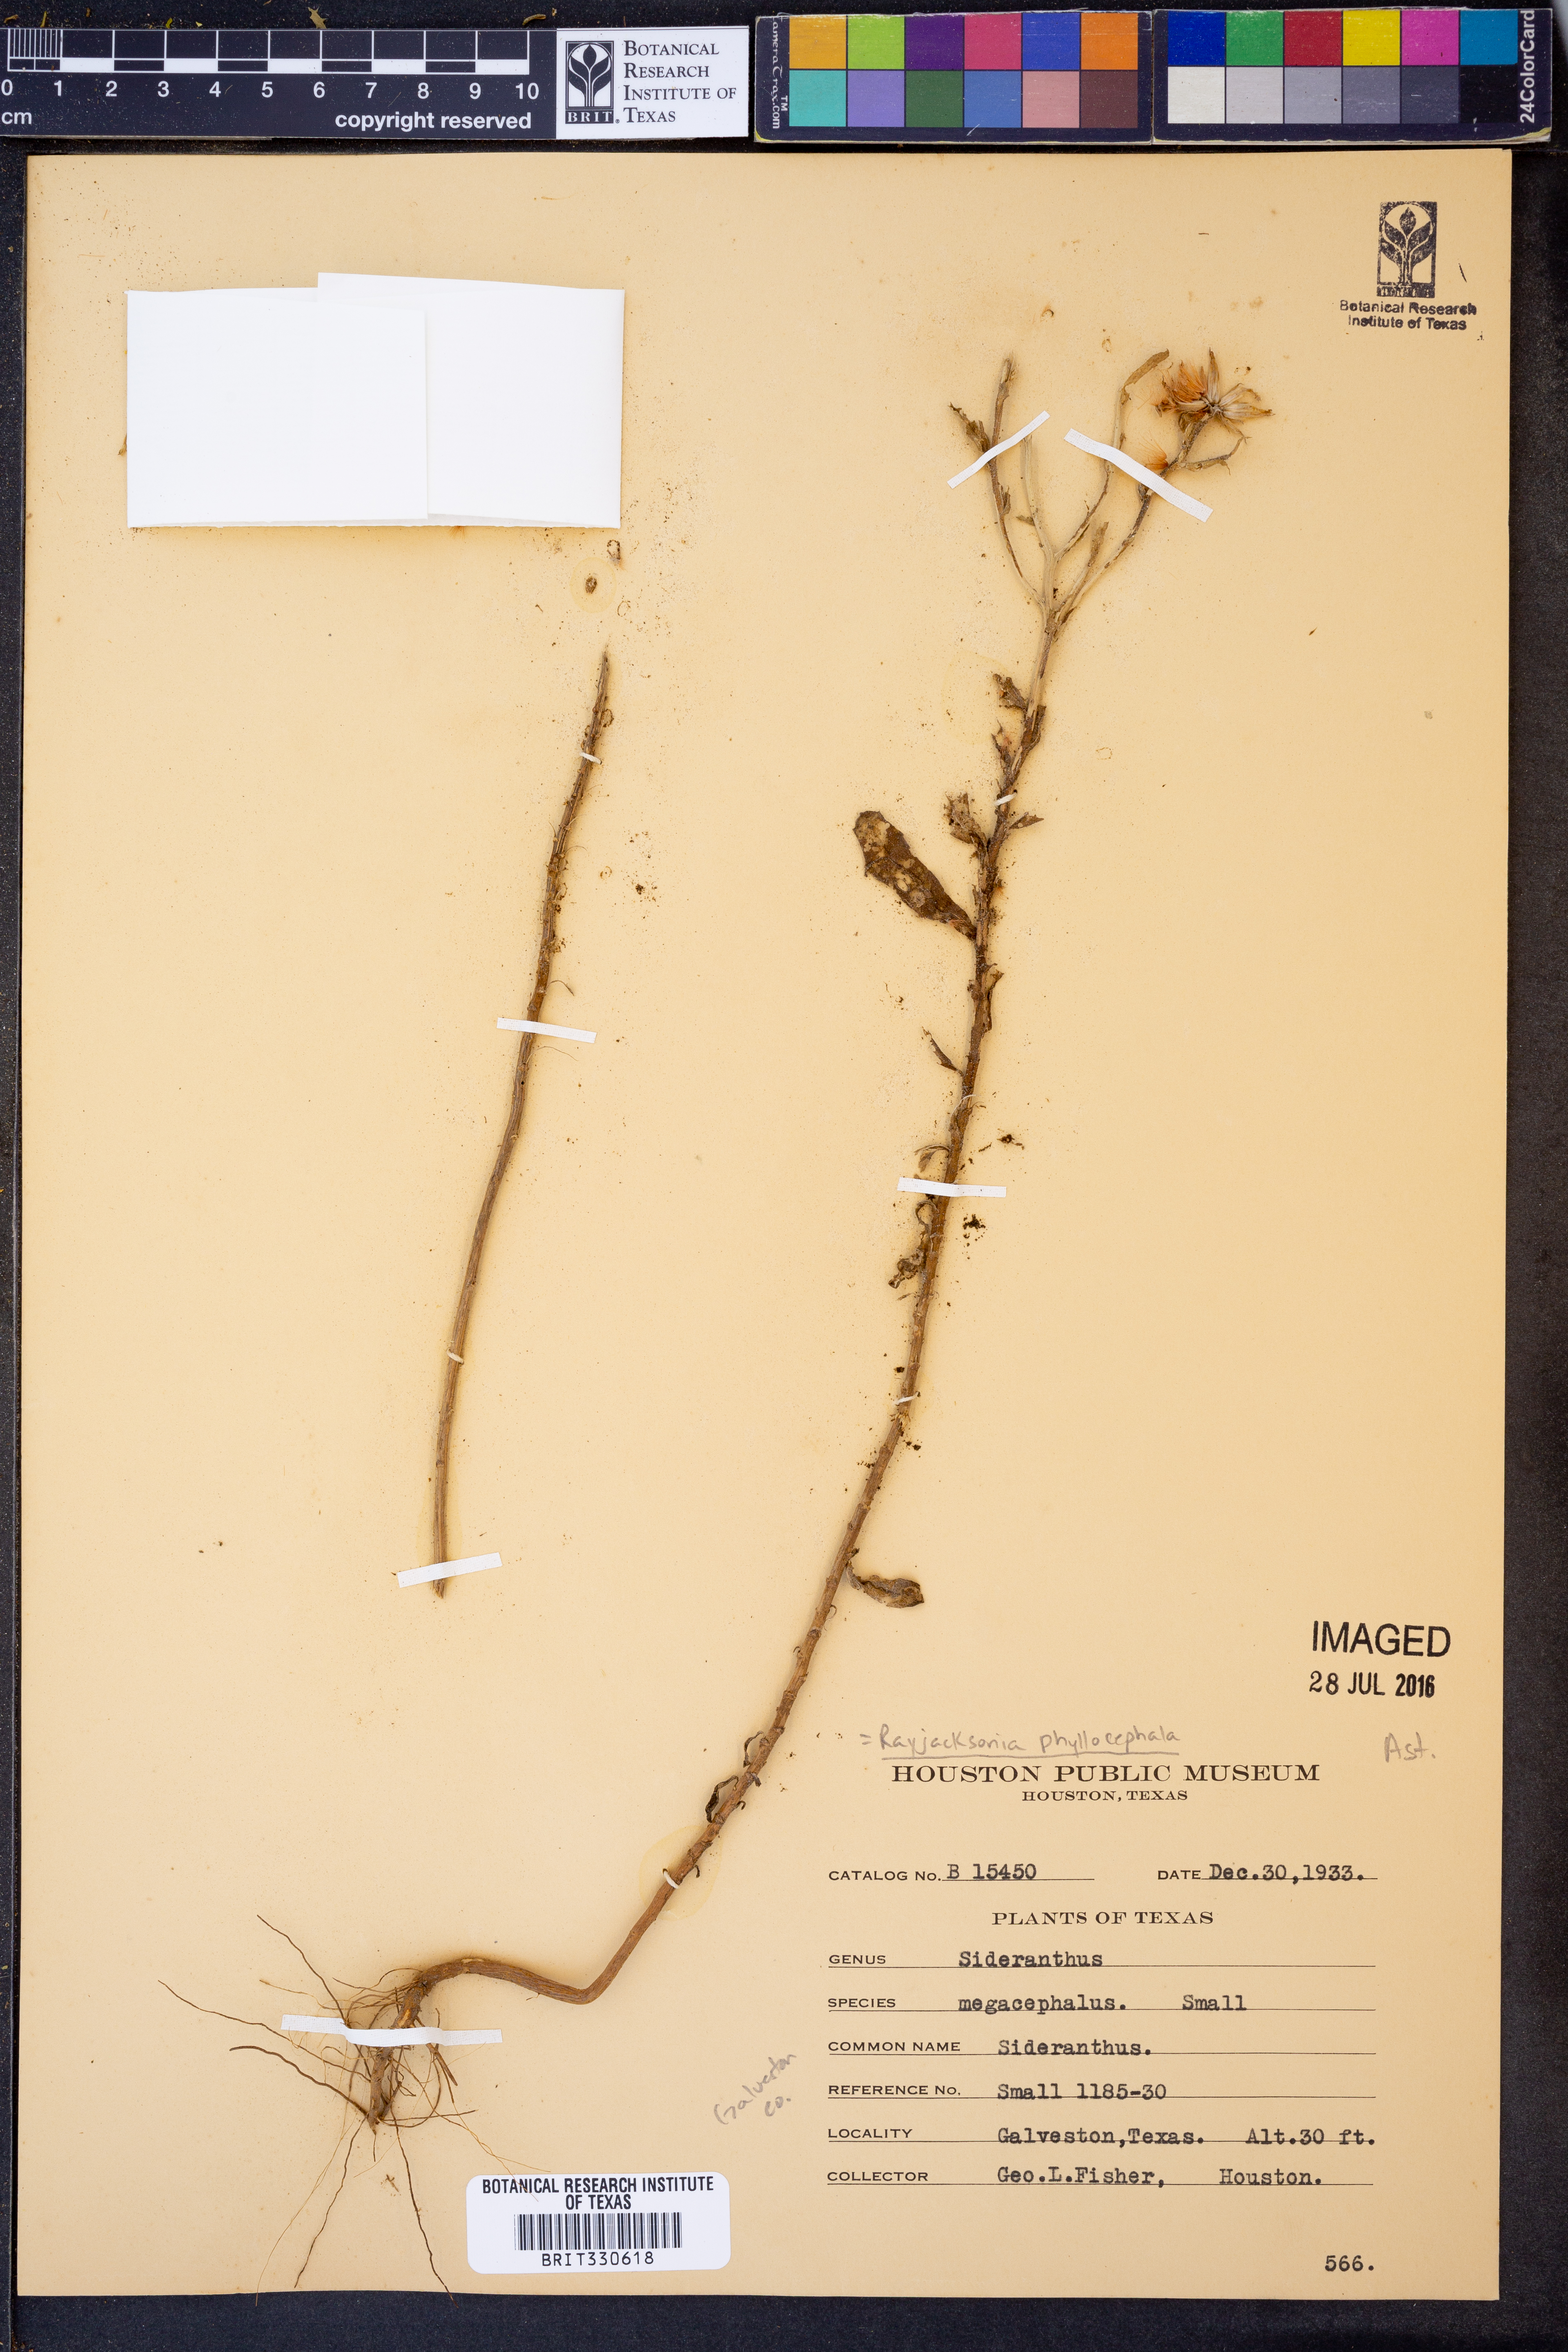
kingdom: Plantae
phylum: Tracheophyta
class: Magnoliopsida
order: Asterales
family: Asteraceae
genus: Rayjacksonia
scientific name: Rayjacksonia phyllocephala
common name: Gulf coast camphor daisy
